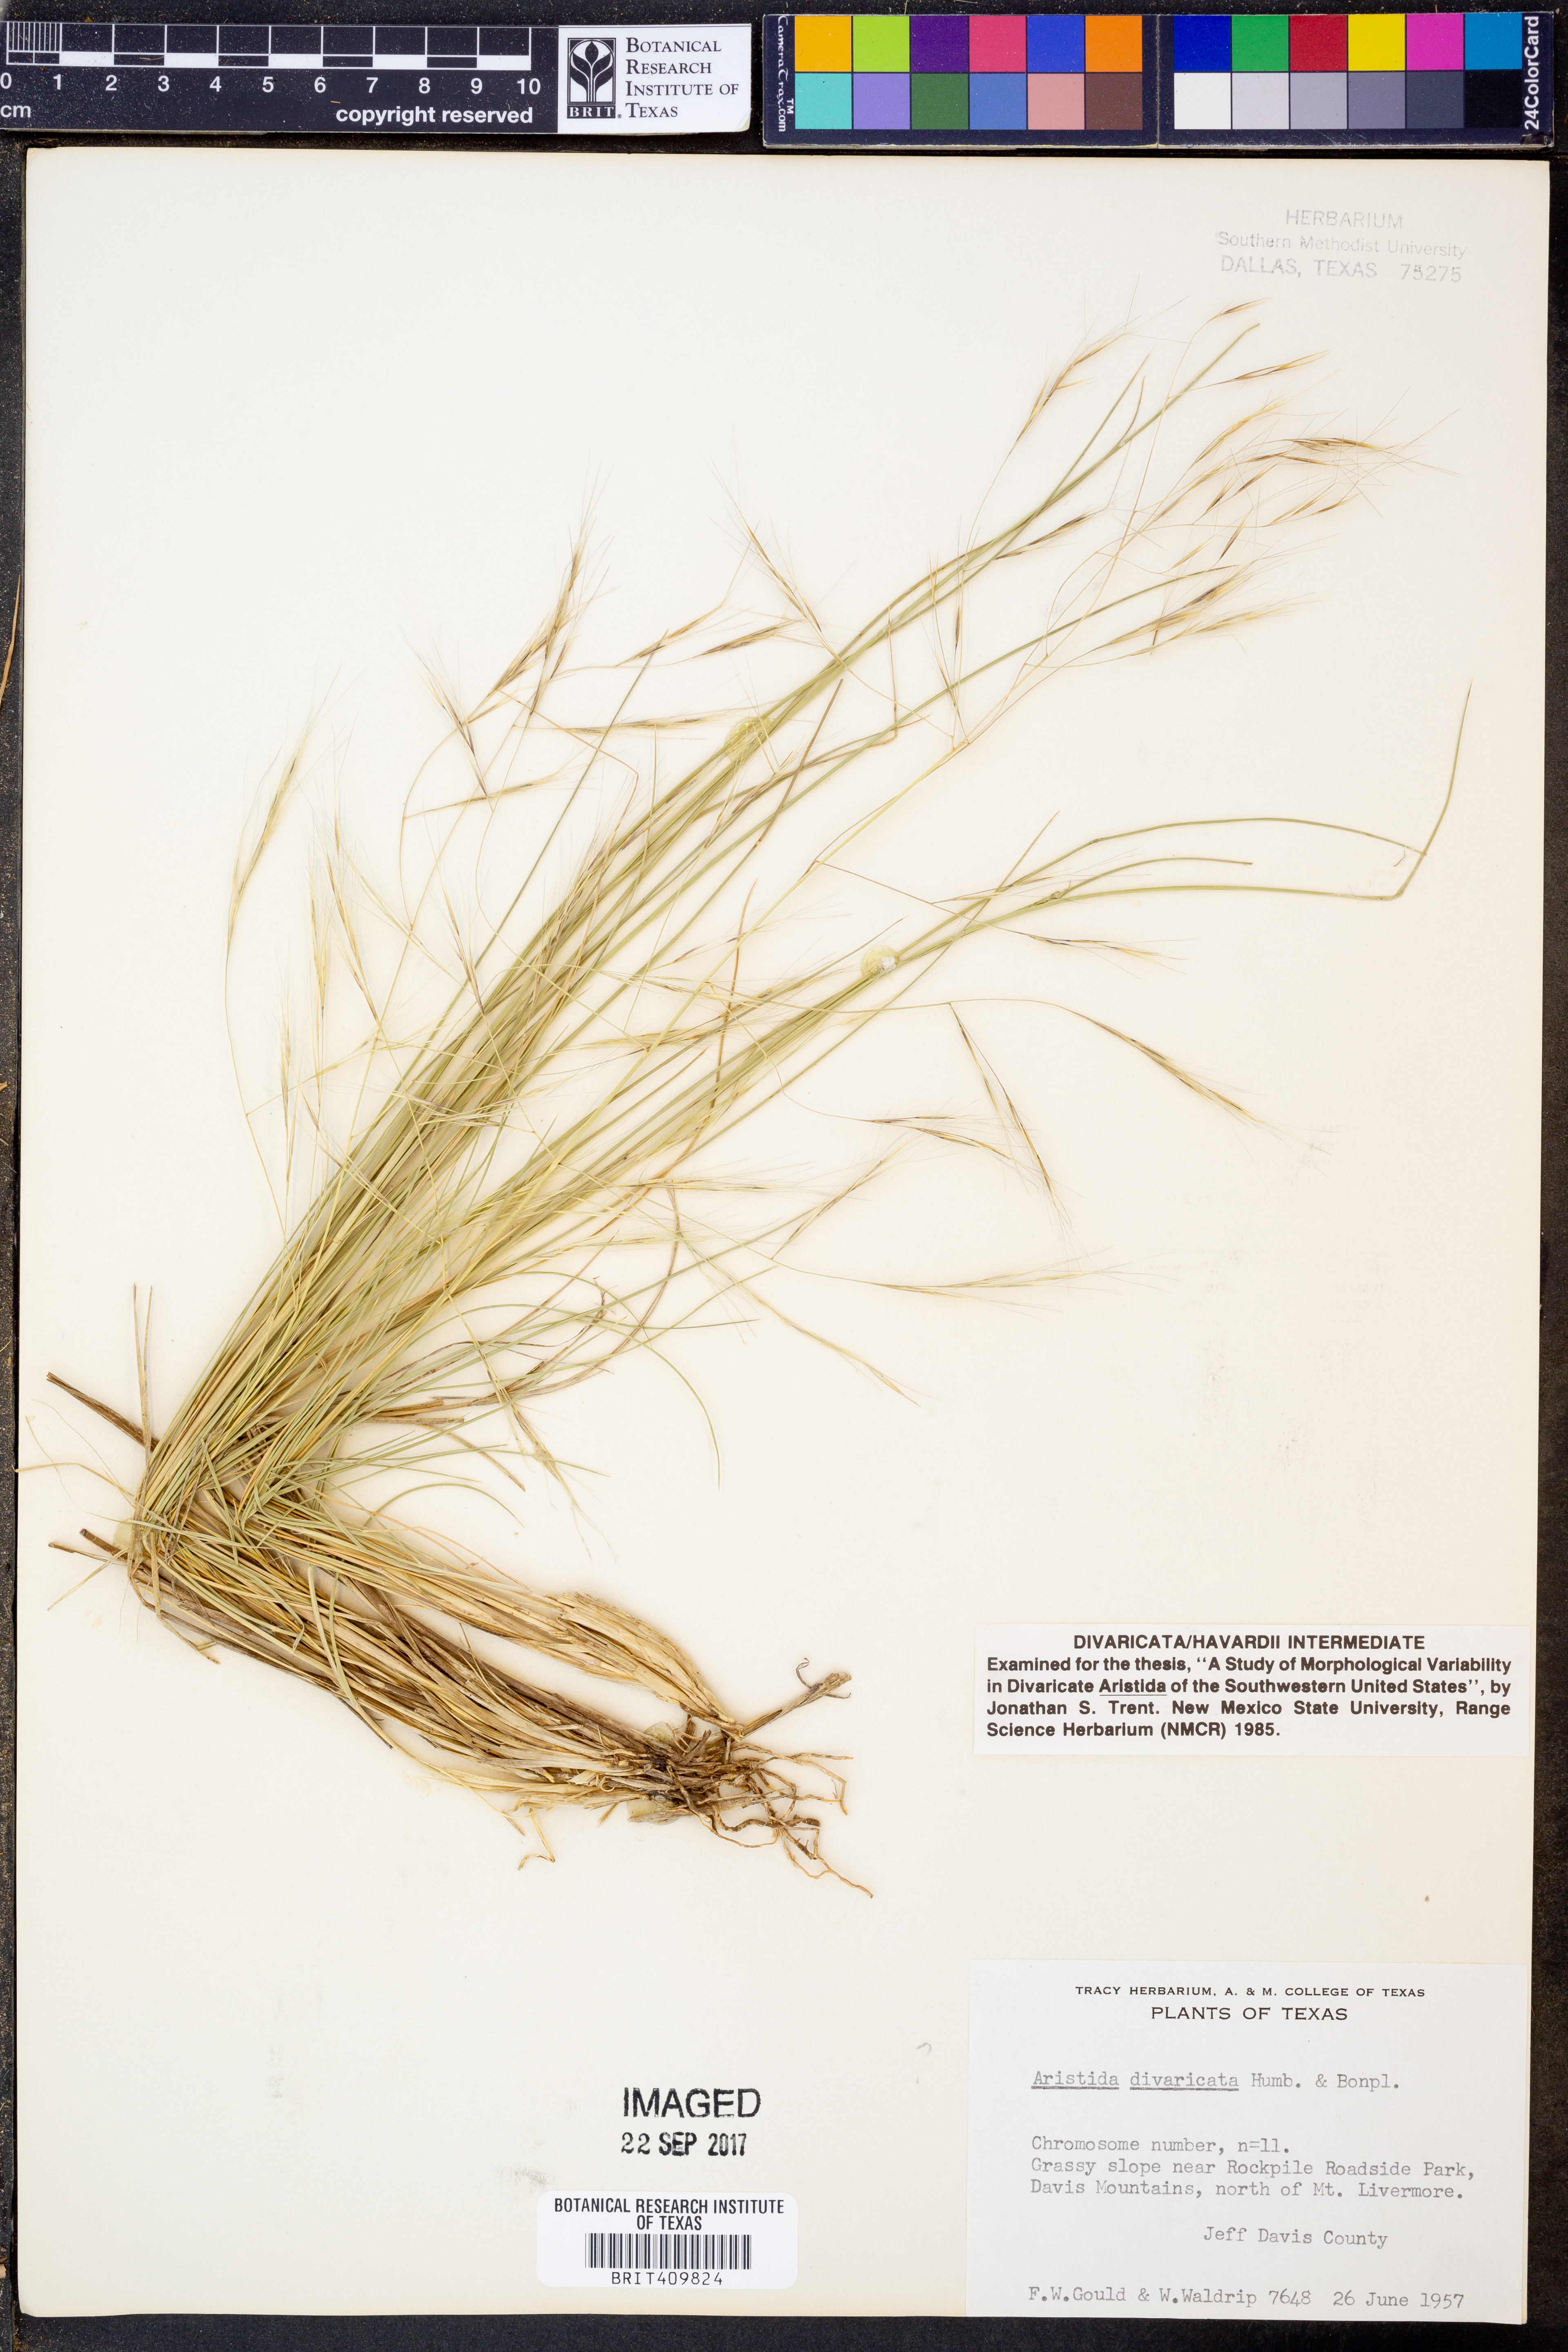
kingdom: Plantae
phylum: Tracheophyta
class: Liliopsida
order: Poales
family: Poaceae
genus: Aristida
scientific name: Aristida divaricata
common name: Poverty grass
